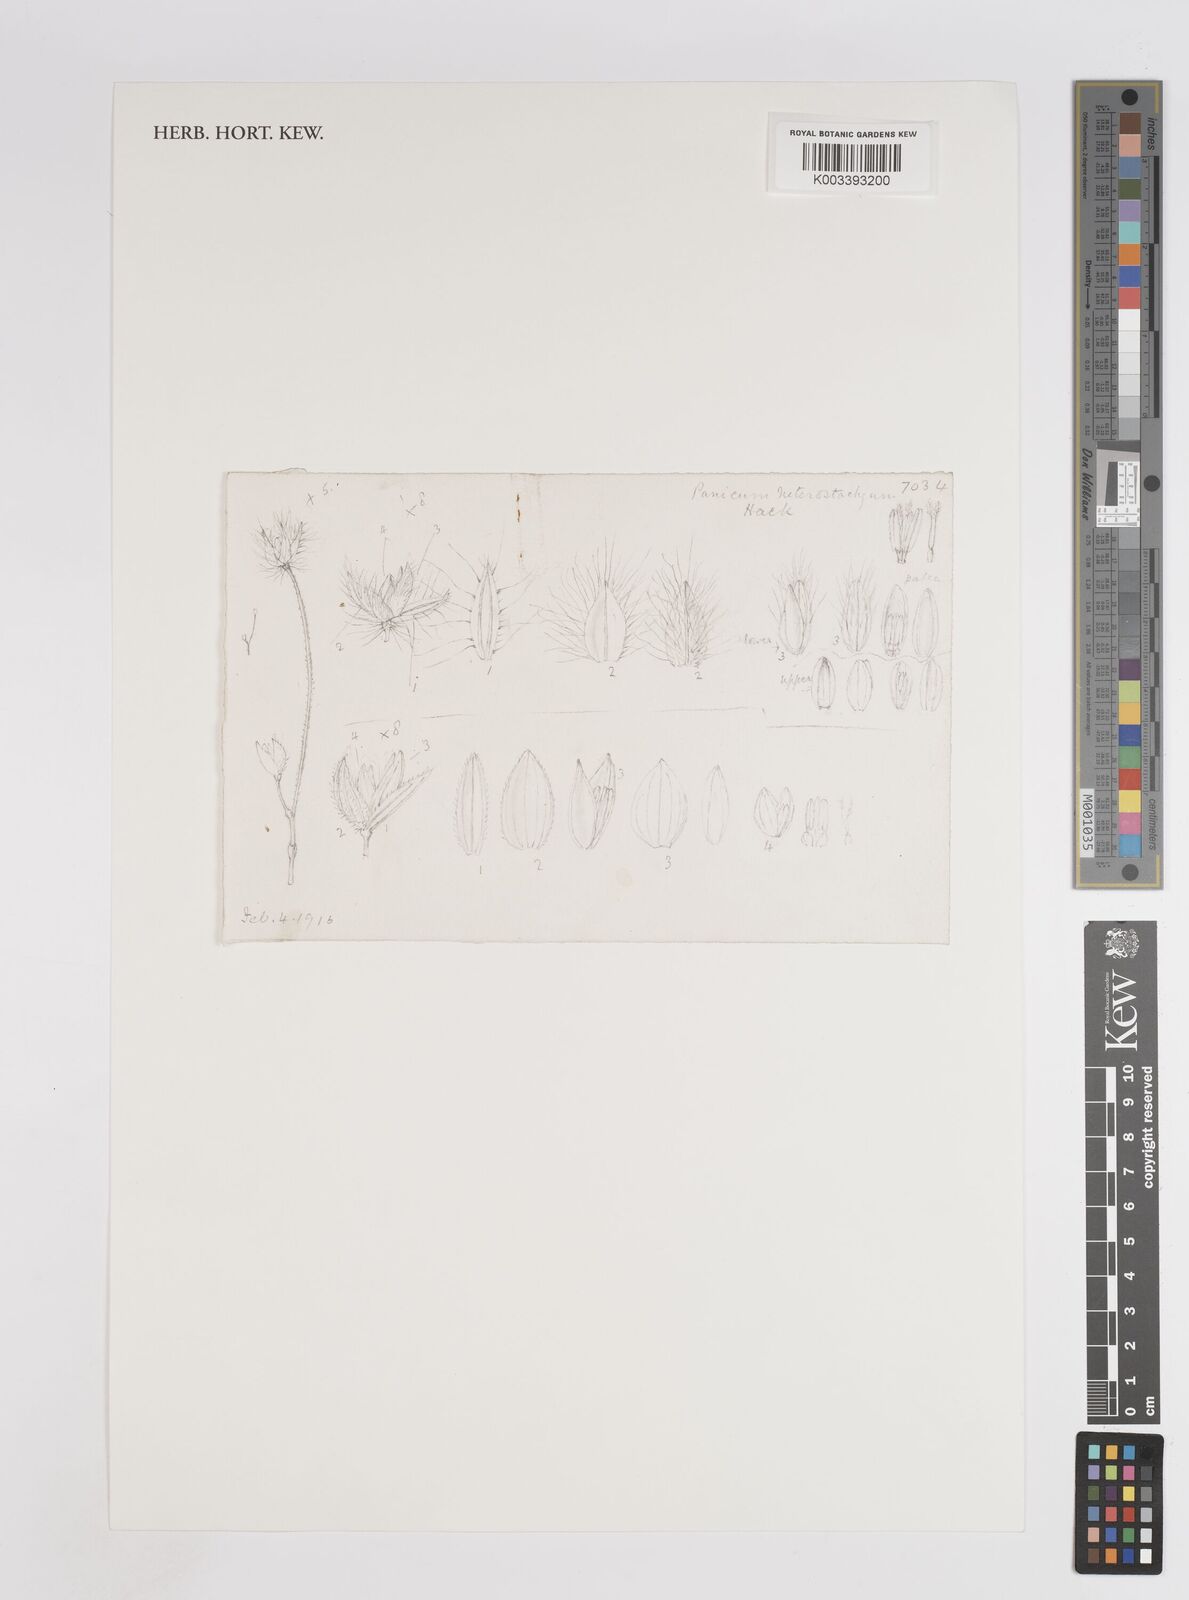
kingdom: Plantae
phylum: Tracheophyta
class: Liliopsida
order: Poales
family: Poaceae
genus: Panicum
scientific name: Panicum hirtum
